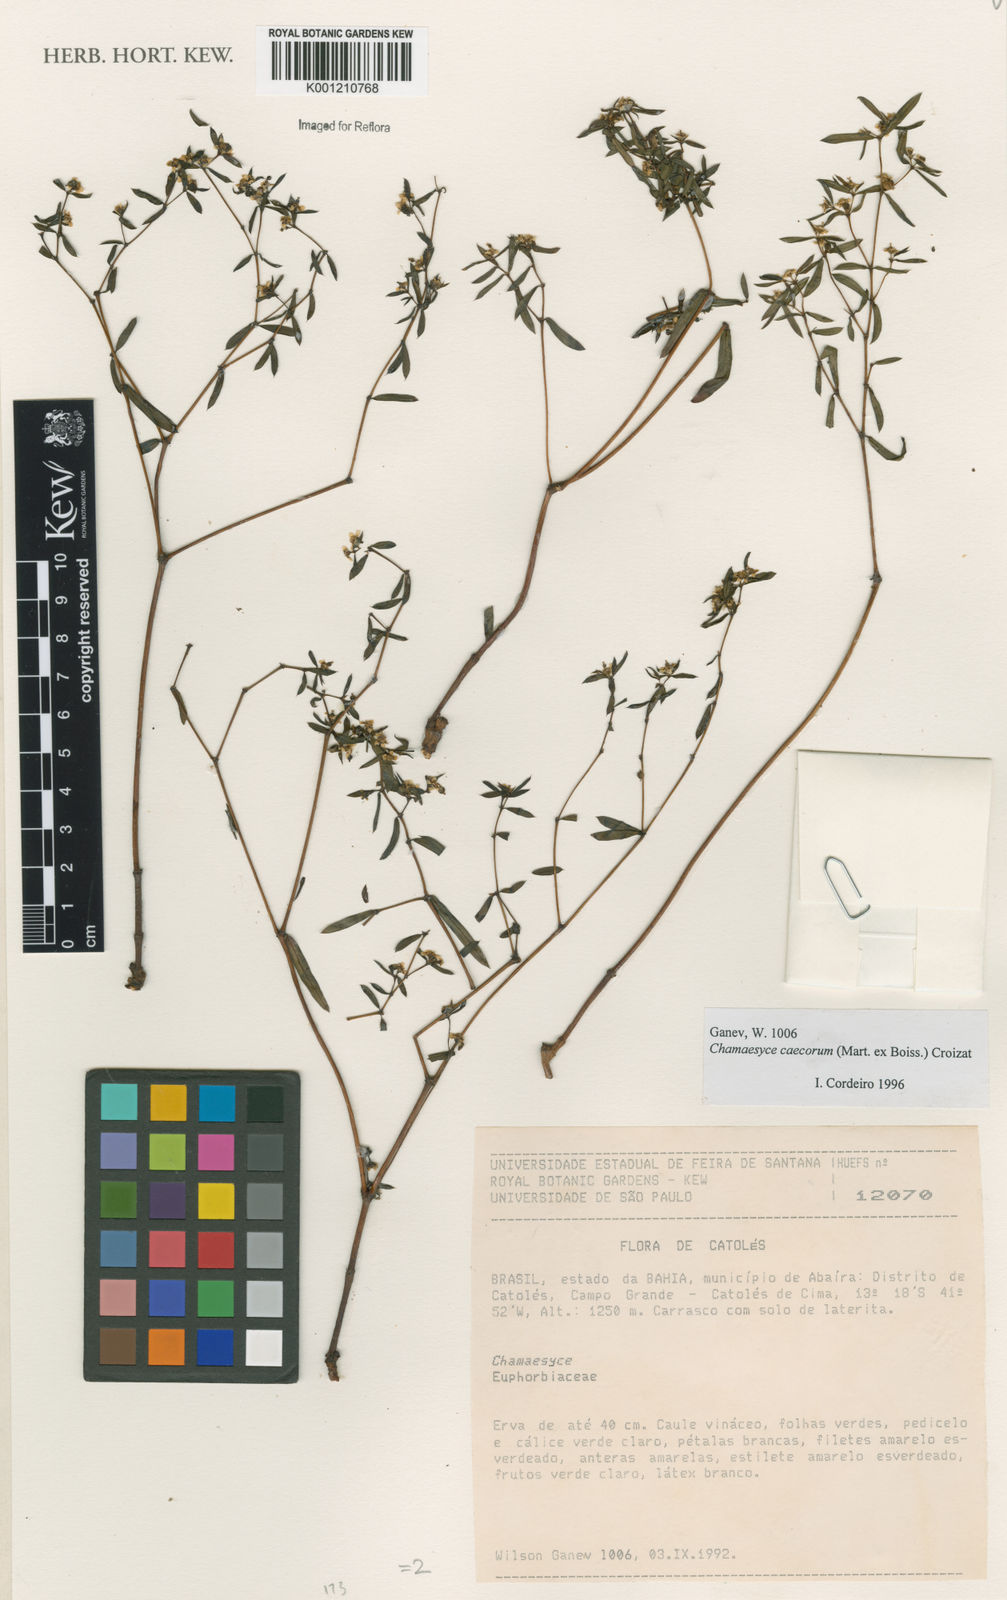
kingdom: Plantae
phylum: Tracheophyta
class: Magnoliopsida
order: Malpighiales
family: Euphorbiaceae
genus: Euphorbia
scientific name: Euphorbia potentilloides
